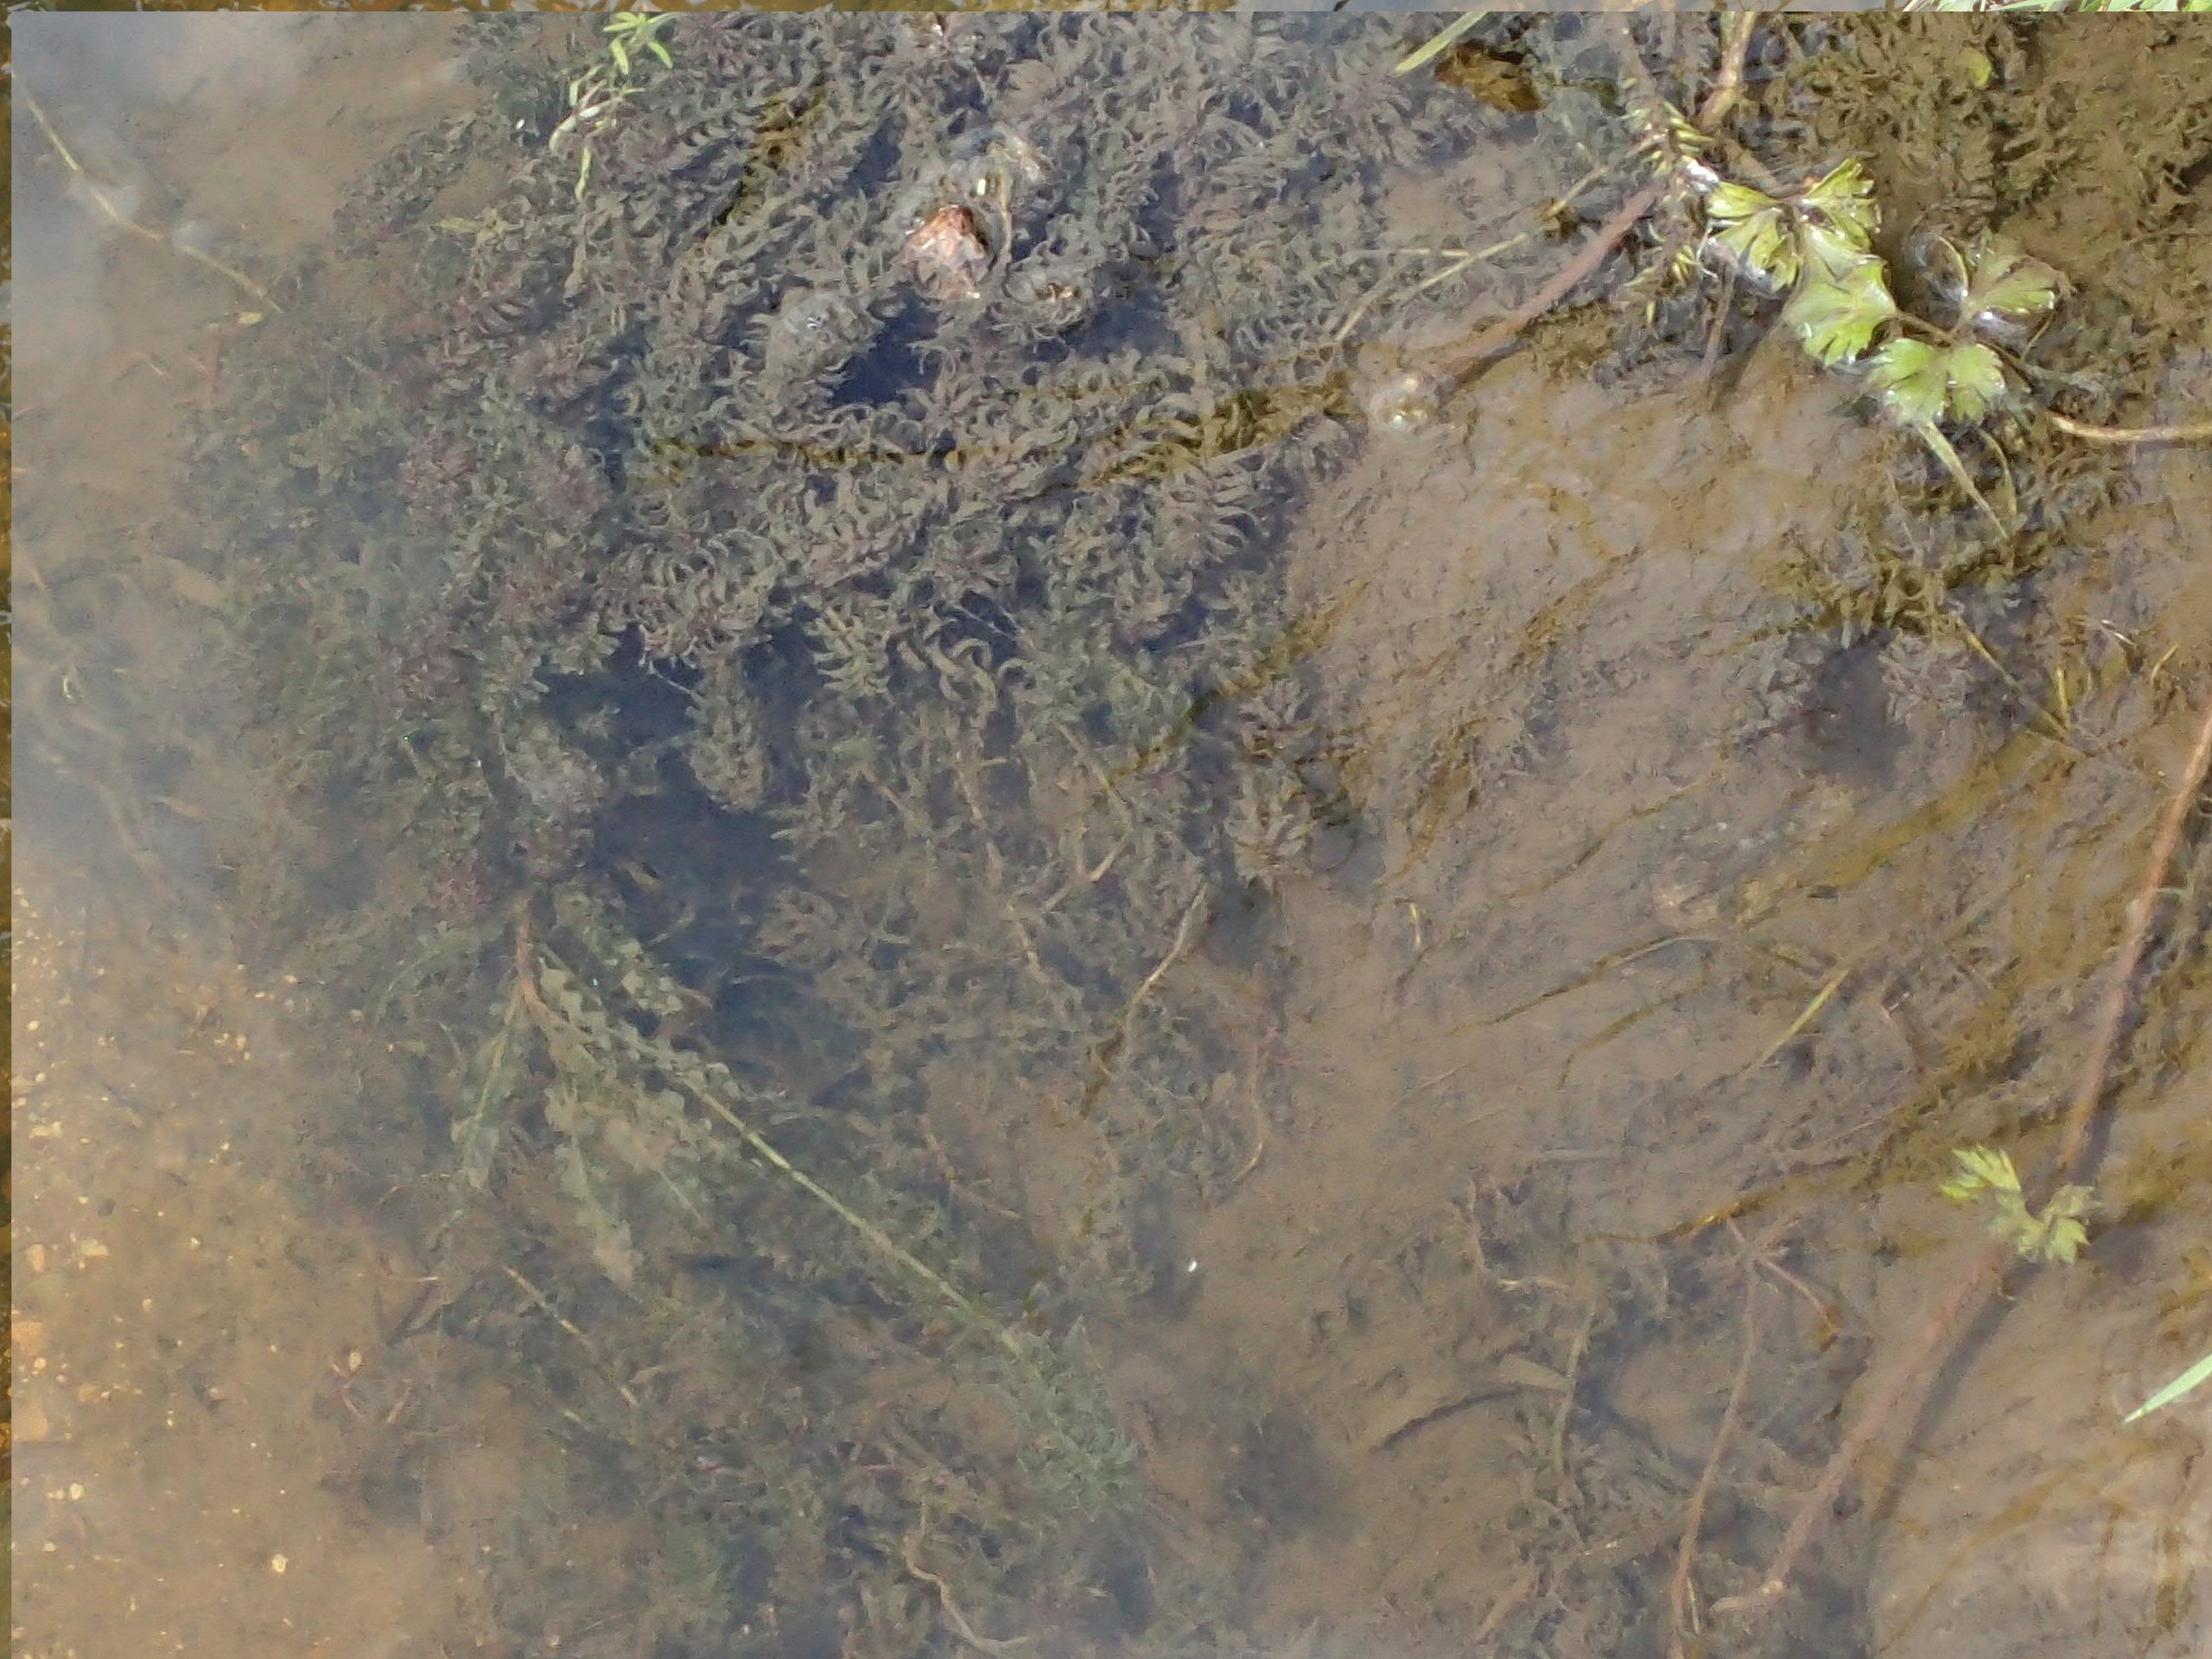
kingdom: Plantae
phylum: Tracheophyta
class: Liliopsida
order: Alismatales
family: Hydrocharitaceae
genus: Elodea
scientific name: Elodea nuttallii
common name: Smalbladet vandpest
